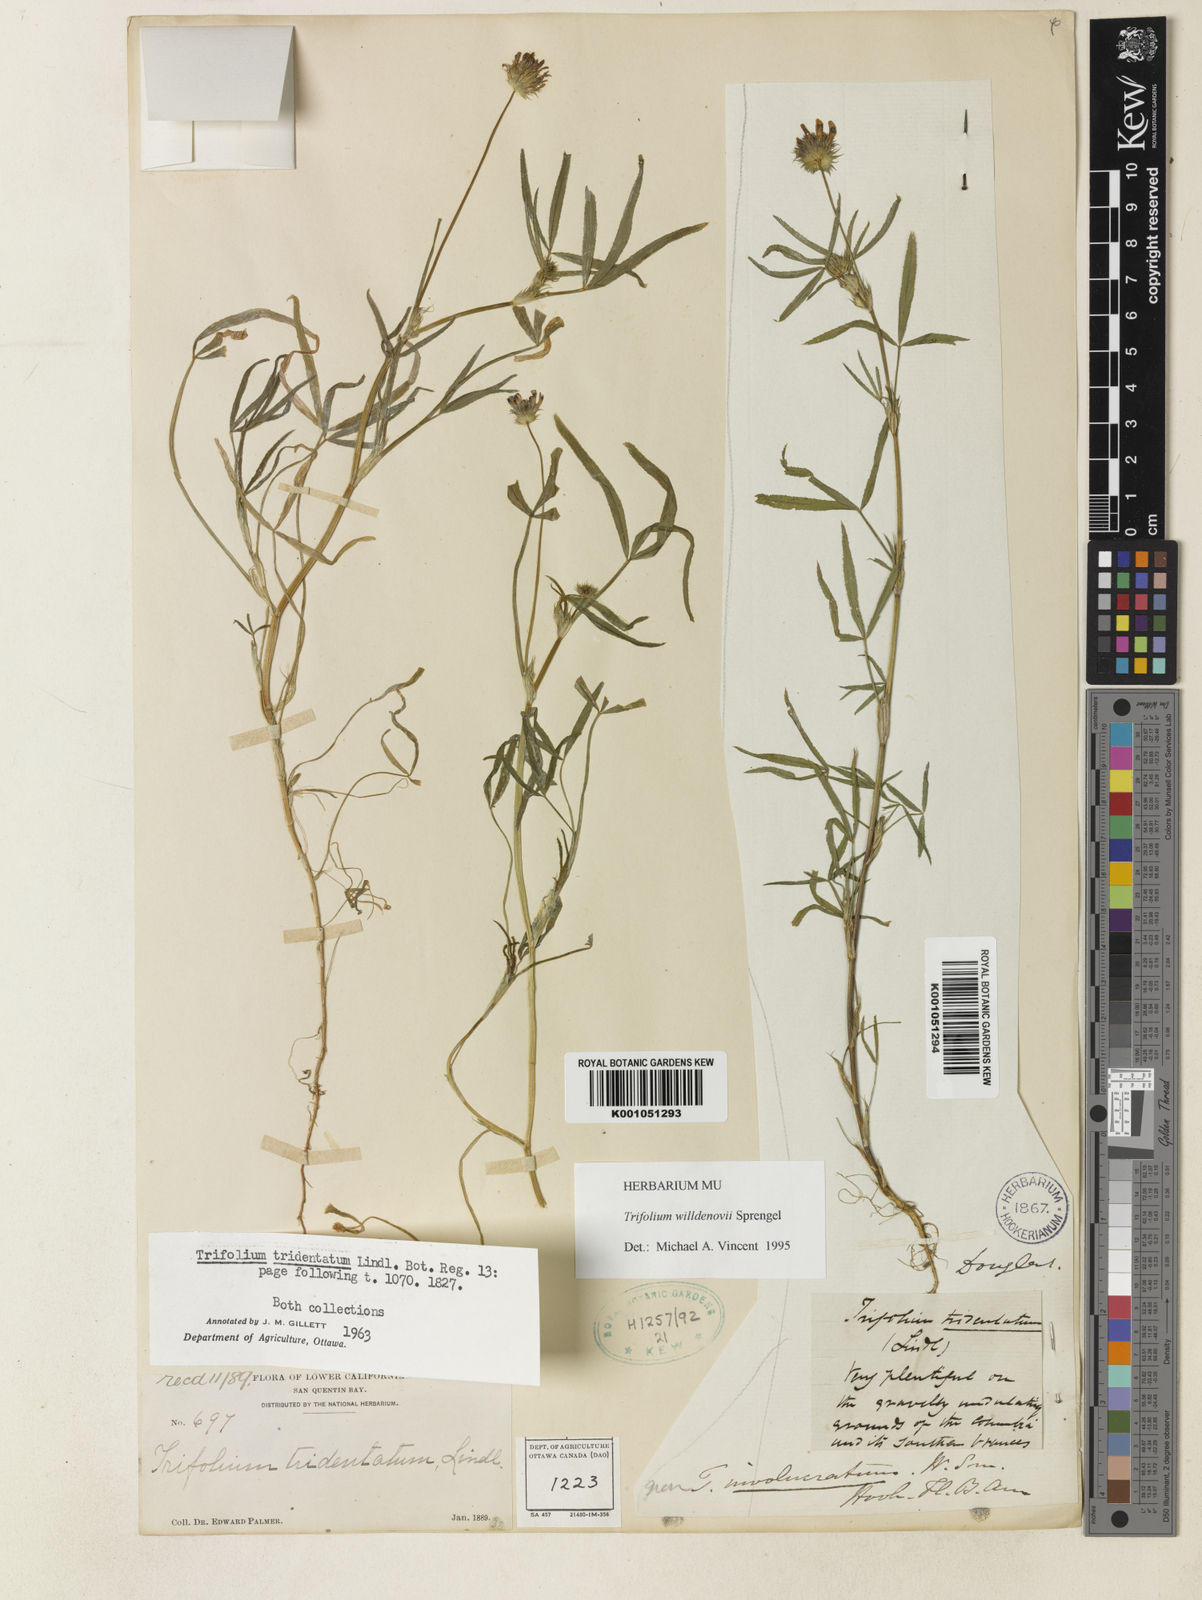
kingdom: Plantae
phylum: Tracheophyta
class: Magnoliopsida
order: Fabales
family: Fabaceae
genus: Trifolium
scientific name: Trifolium willdenovii
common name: Tomcat clover
